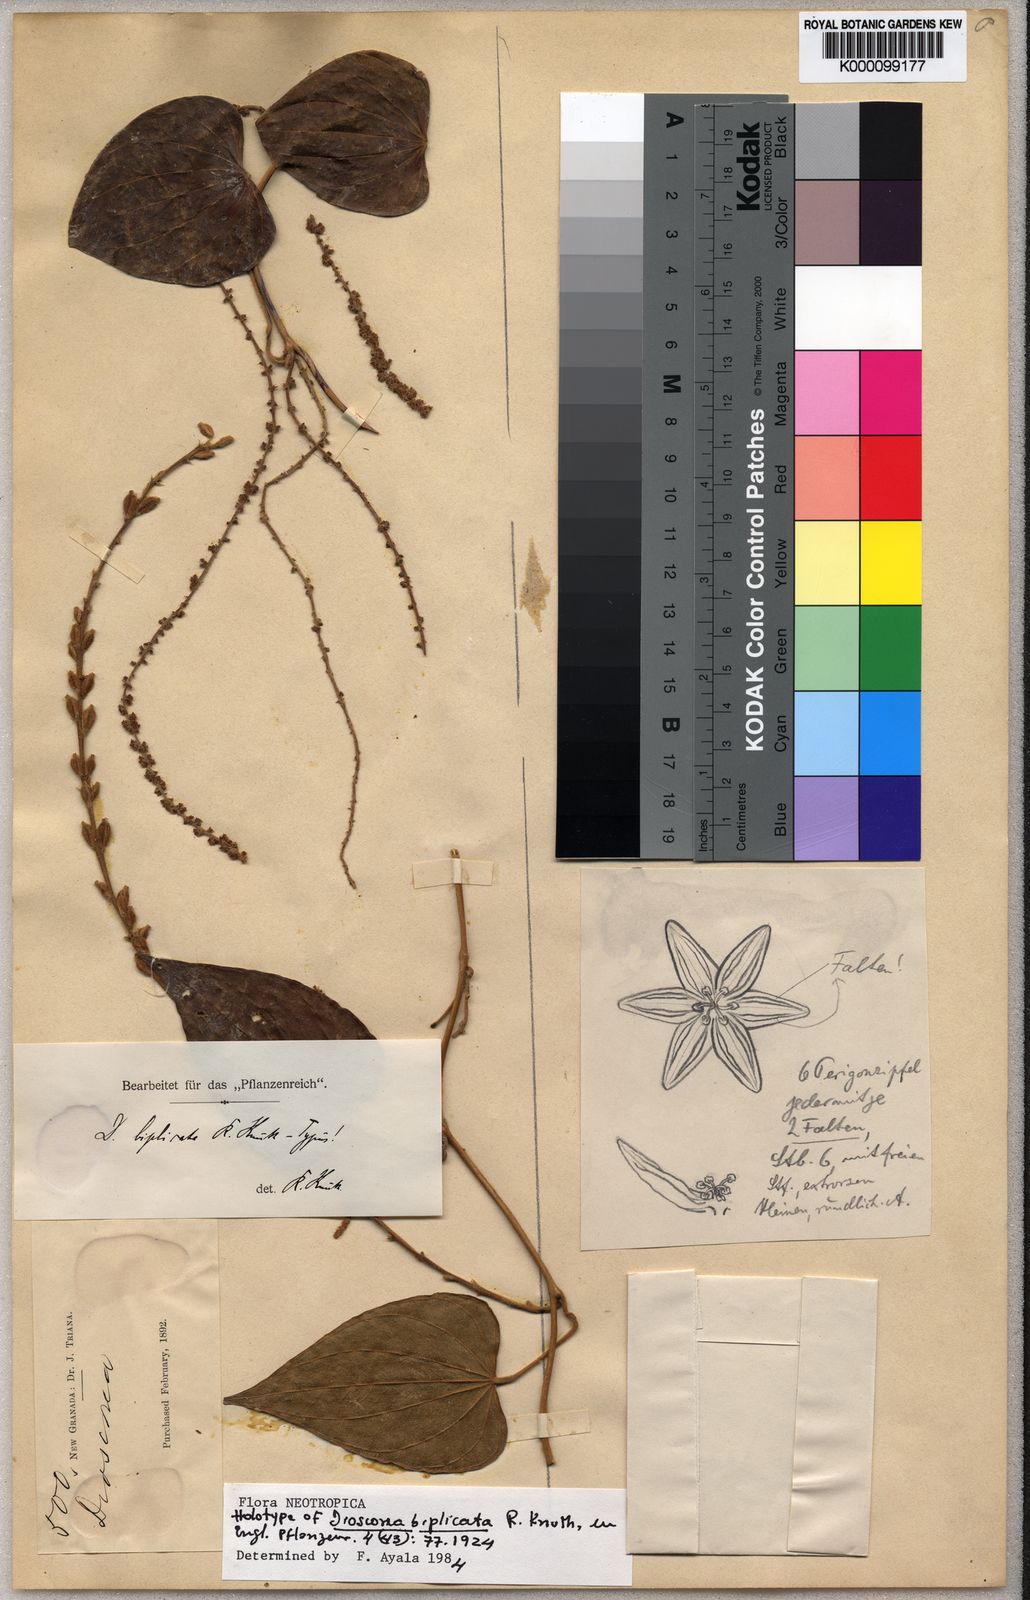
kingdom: Plantae
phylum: Tracheophyta
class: Liliopsida
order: Dioscoreales
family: Dioscoreaceae
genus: Dioscorea
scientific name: Dioscorea biplicata
